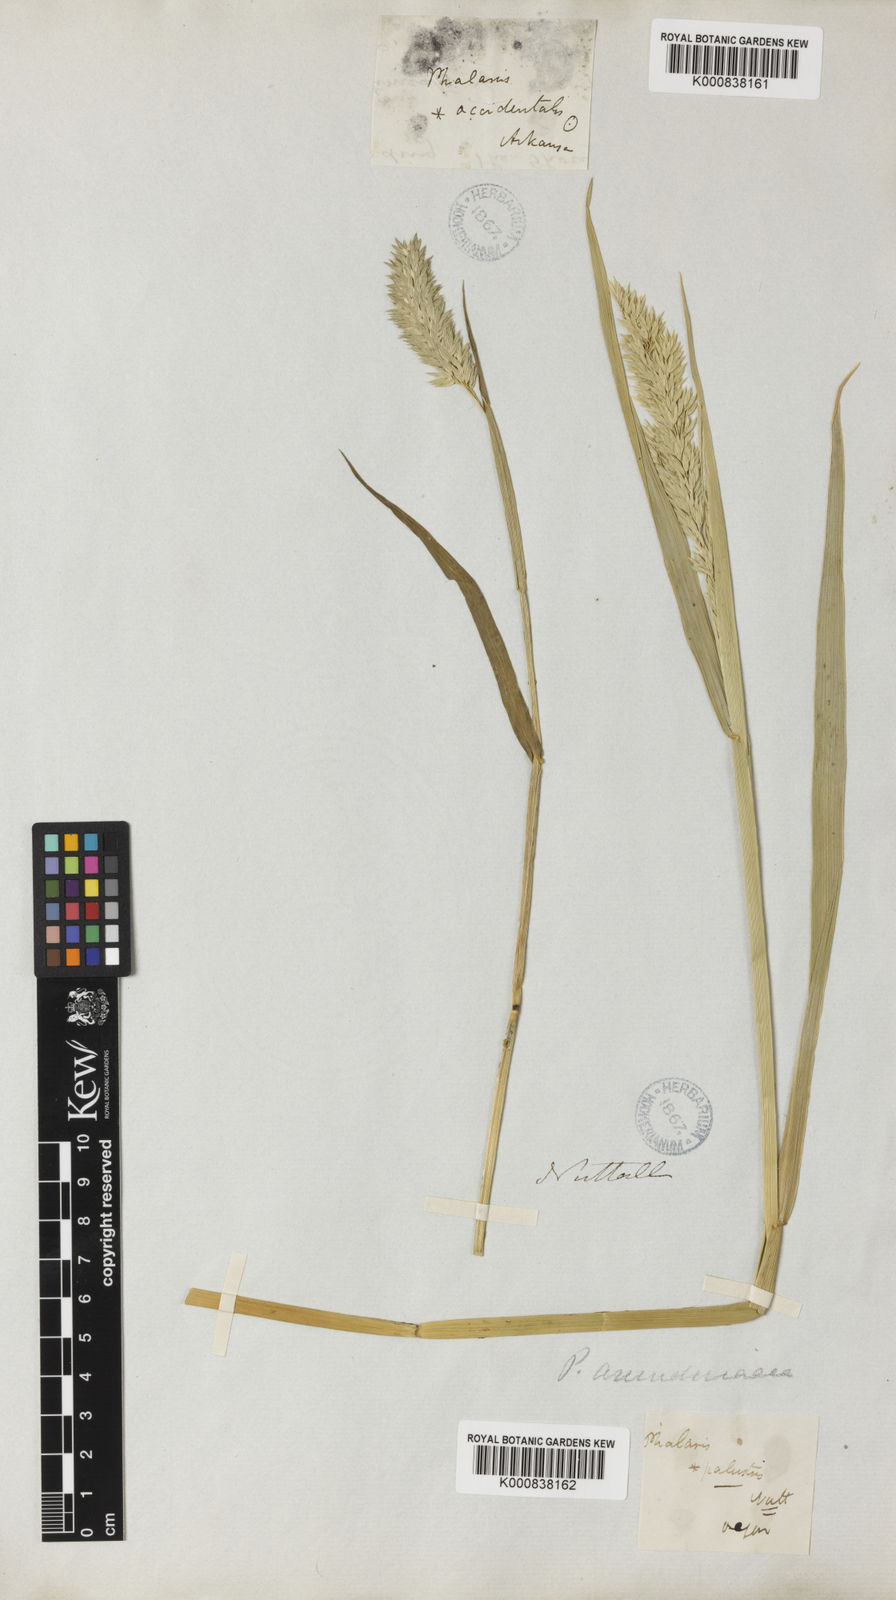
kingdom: Plantae
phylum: Tracheophyta
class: Liliopsida
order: Poales
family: Poaceae
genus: Phalaris
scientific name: Phalaris caroliniana
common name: May grass
